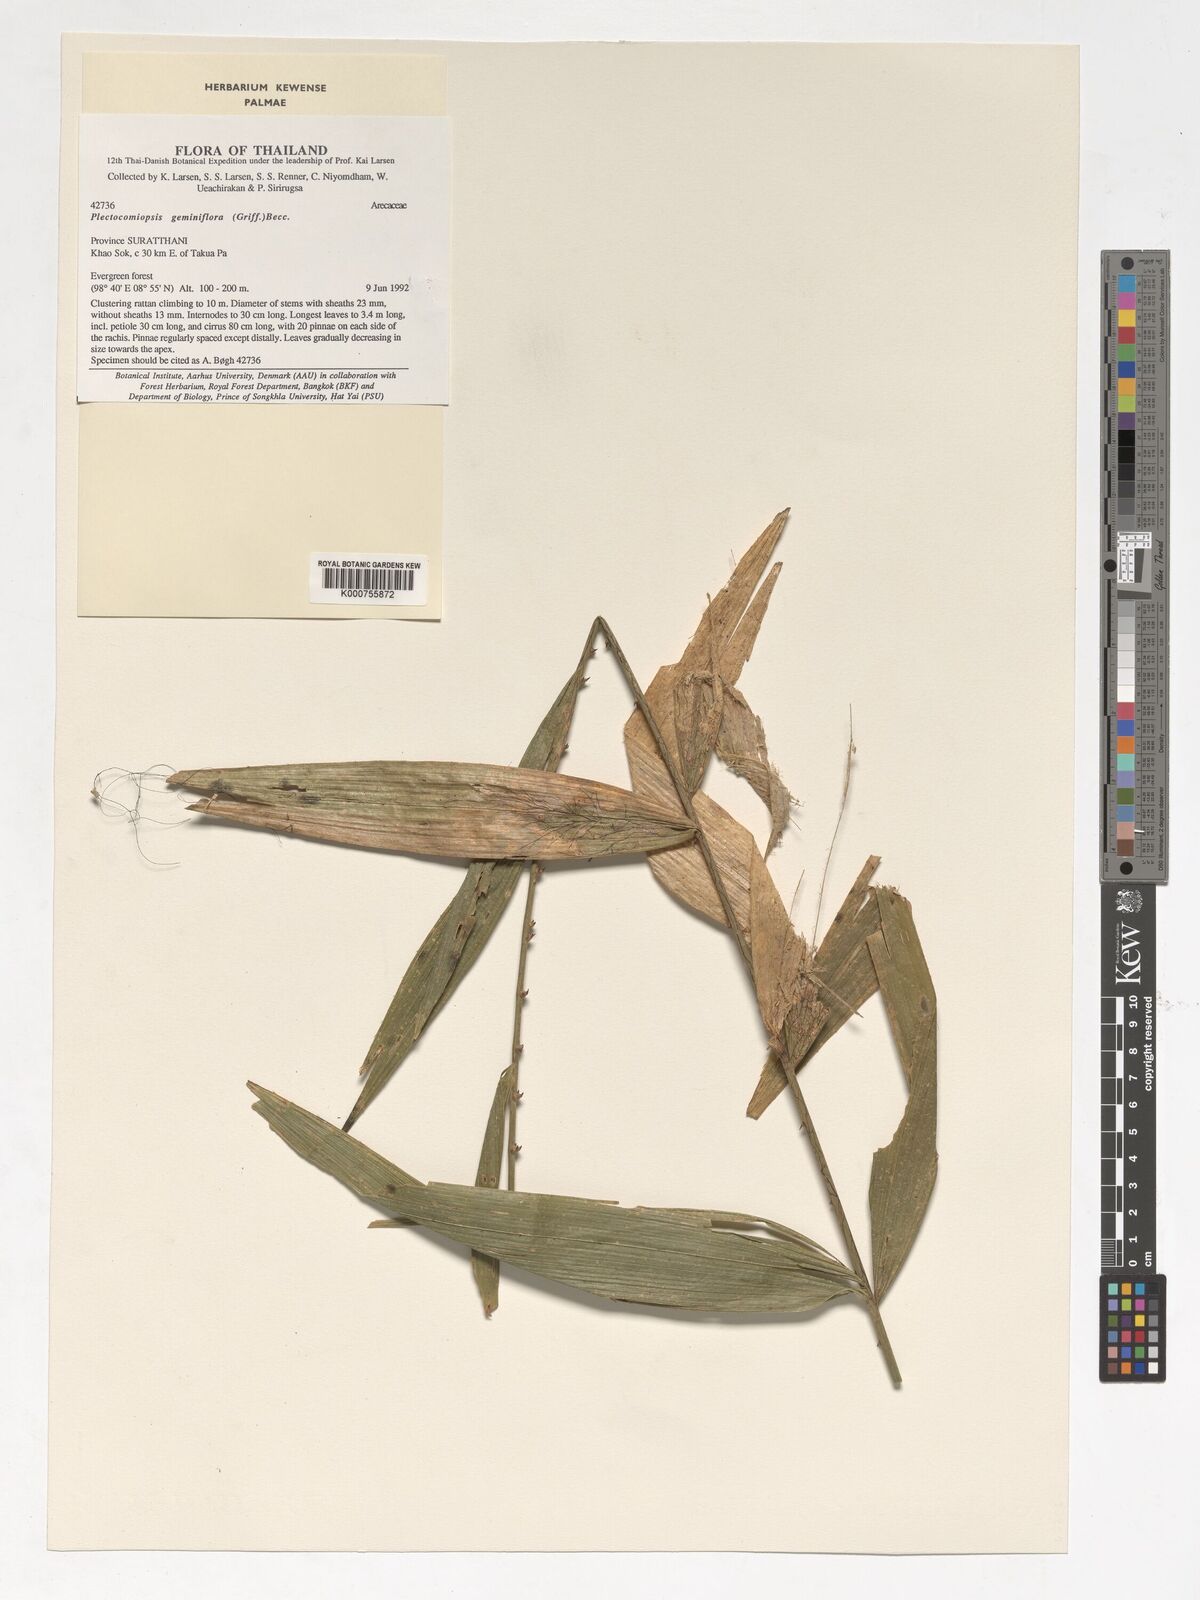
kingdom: Plantae
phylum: Tracheophyta
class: Liliopsida
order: Arecales
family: Arecaceae
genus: Plectocomiopsis
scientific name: Plectocomiopsis geminiflora
